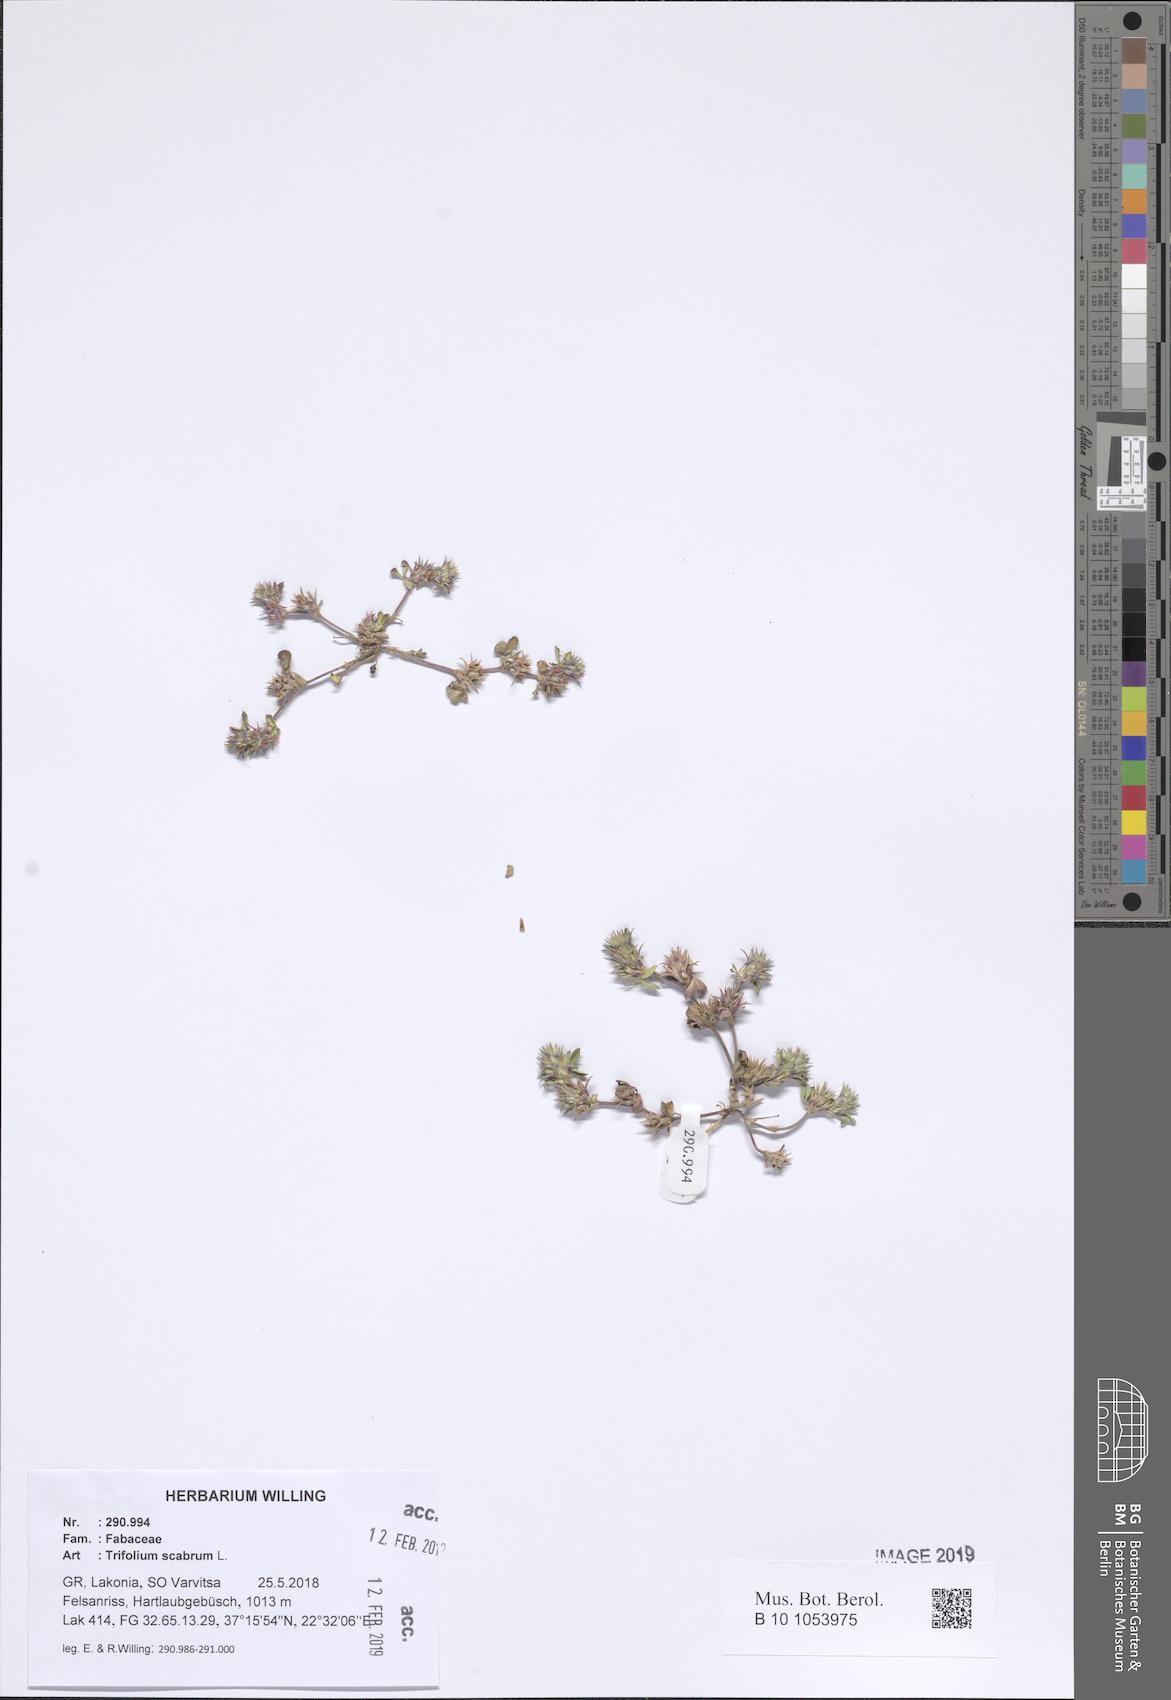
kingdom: Plantae
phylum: Tracheophyta
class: Magnoliopsida
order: Fabales
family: Fabaceae
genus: Trifolium
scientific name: Trifolium scabrum
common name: Rough clover
